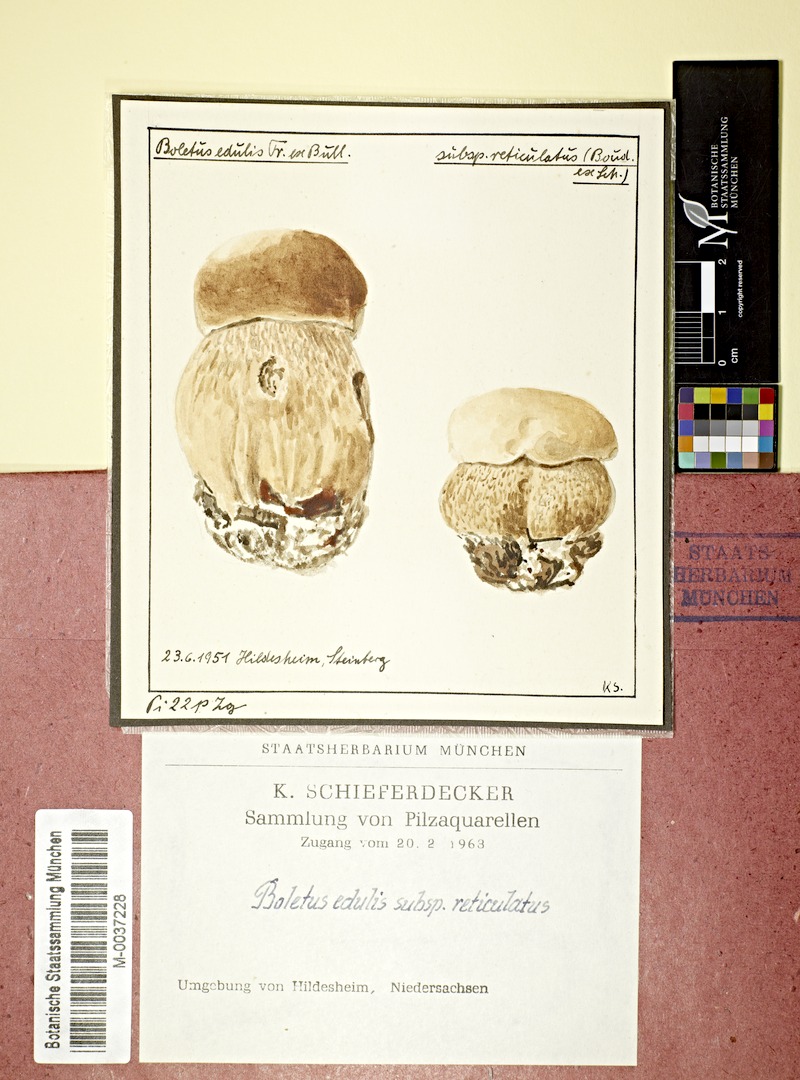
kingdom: Fungi
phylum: Basidiomycota
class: Agaricomycetes
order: Boletales
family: Boletaceae
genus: Boletus
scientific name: Boletus reticulatus
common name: Summer bolete
